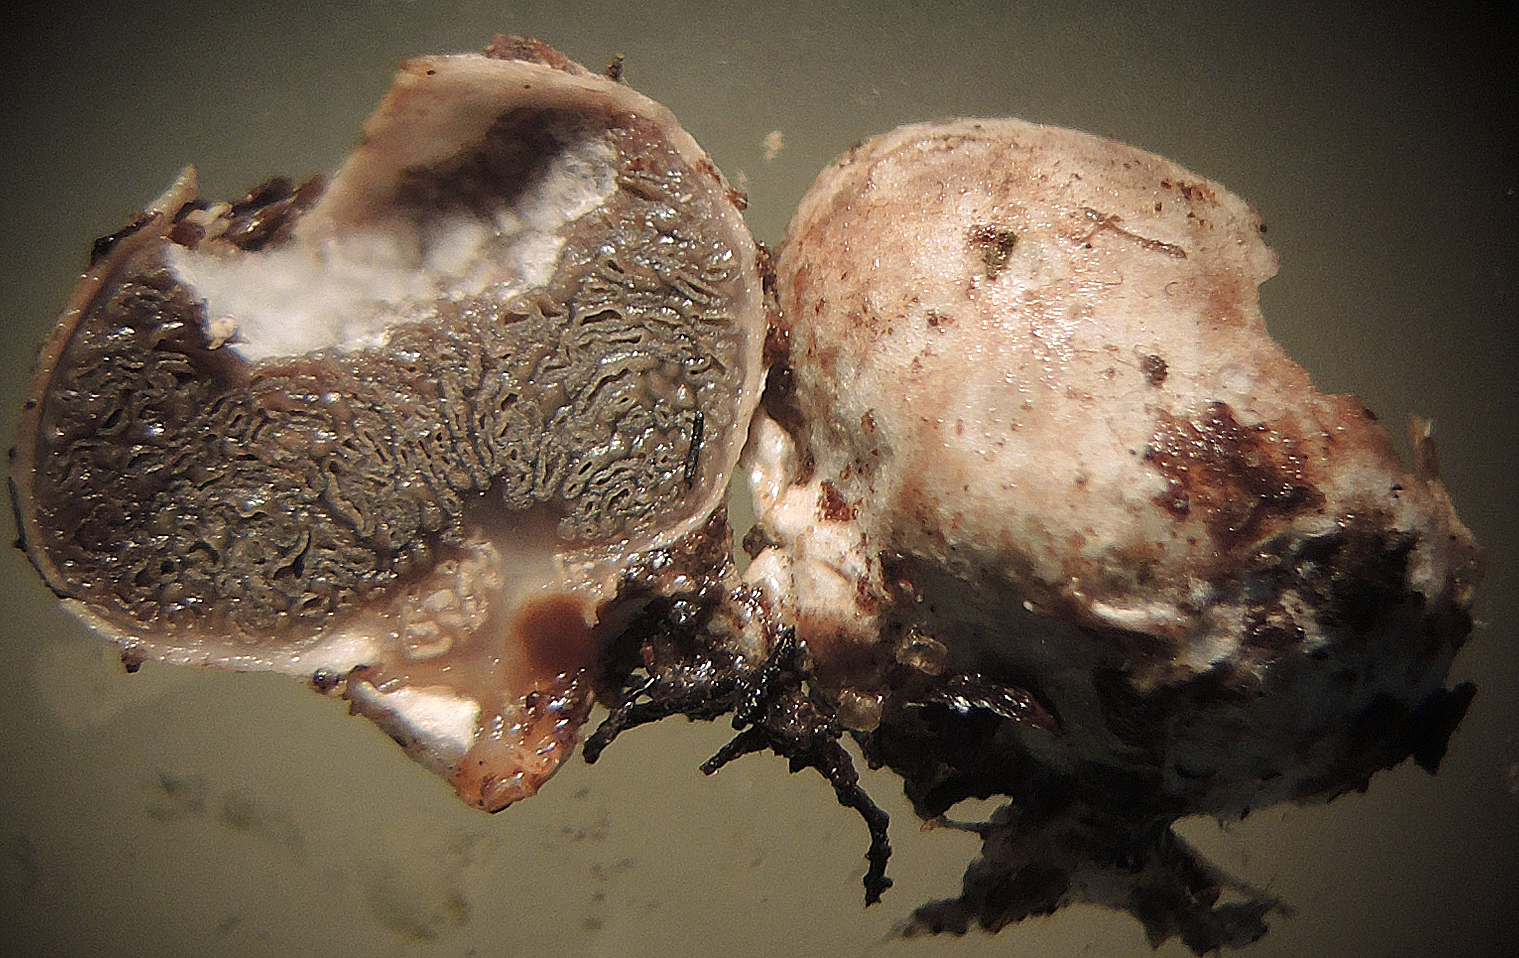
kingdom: Fungi
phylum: Basidiomycota
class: Agaricomycetes
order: Hysterangiales
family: Hysterangiaceae
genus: Hysterangium
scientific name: Hysterangium nephriticum
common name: nyre-rodtrøffel
